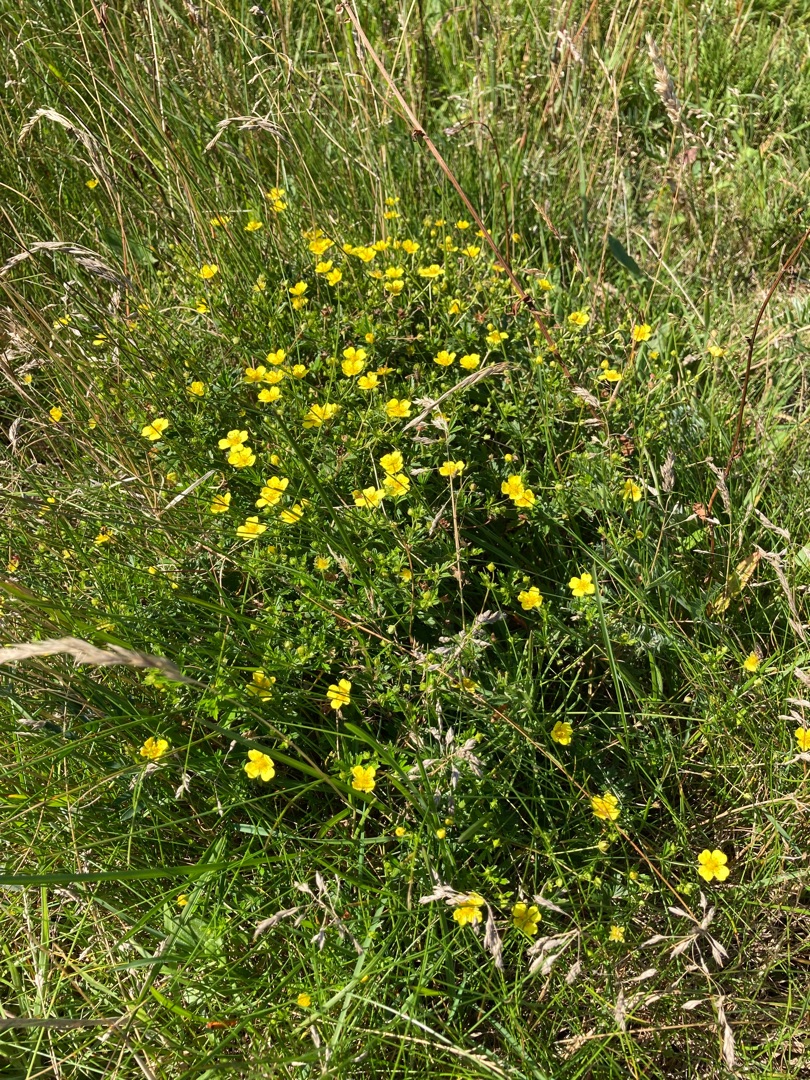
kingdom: Plantae
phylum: Tracheophyta
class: Magnoliopsida
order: Rosales
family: Rosaceae
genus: Potentilla
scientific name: Potentilla erecta
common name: Tormentil
